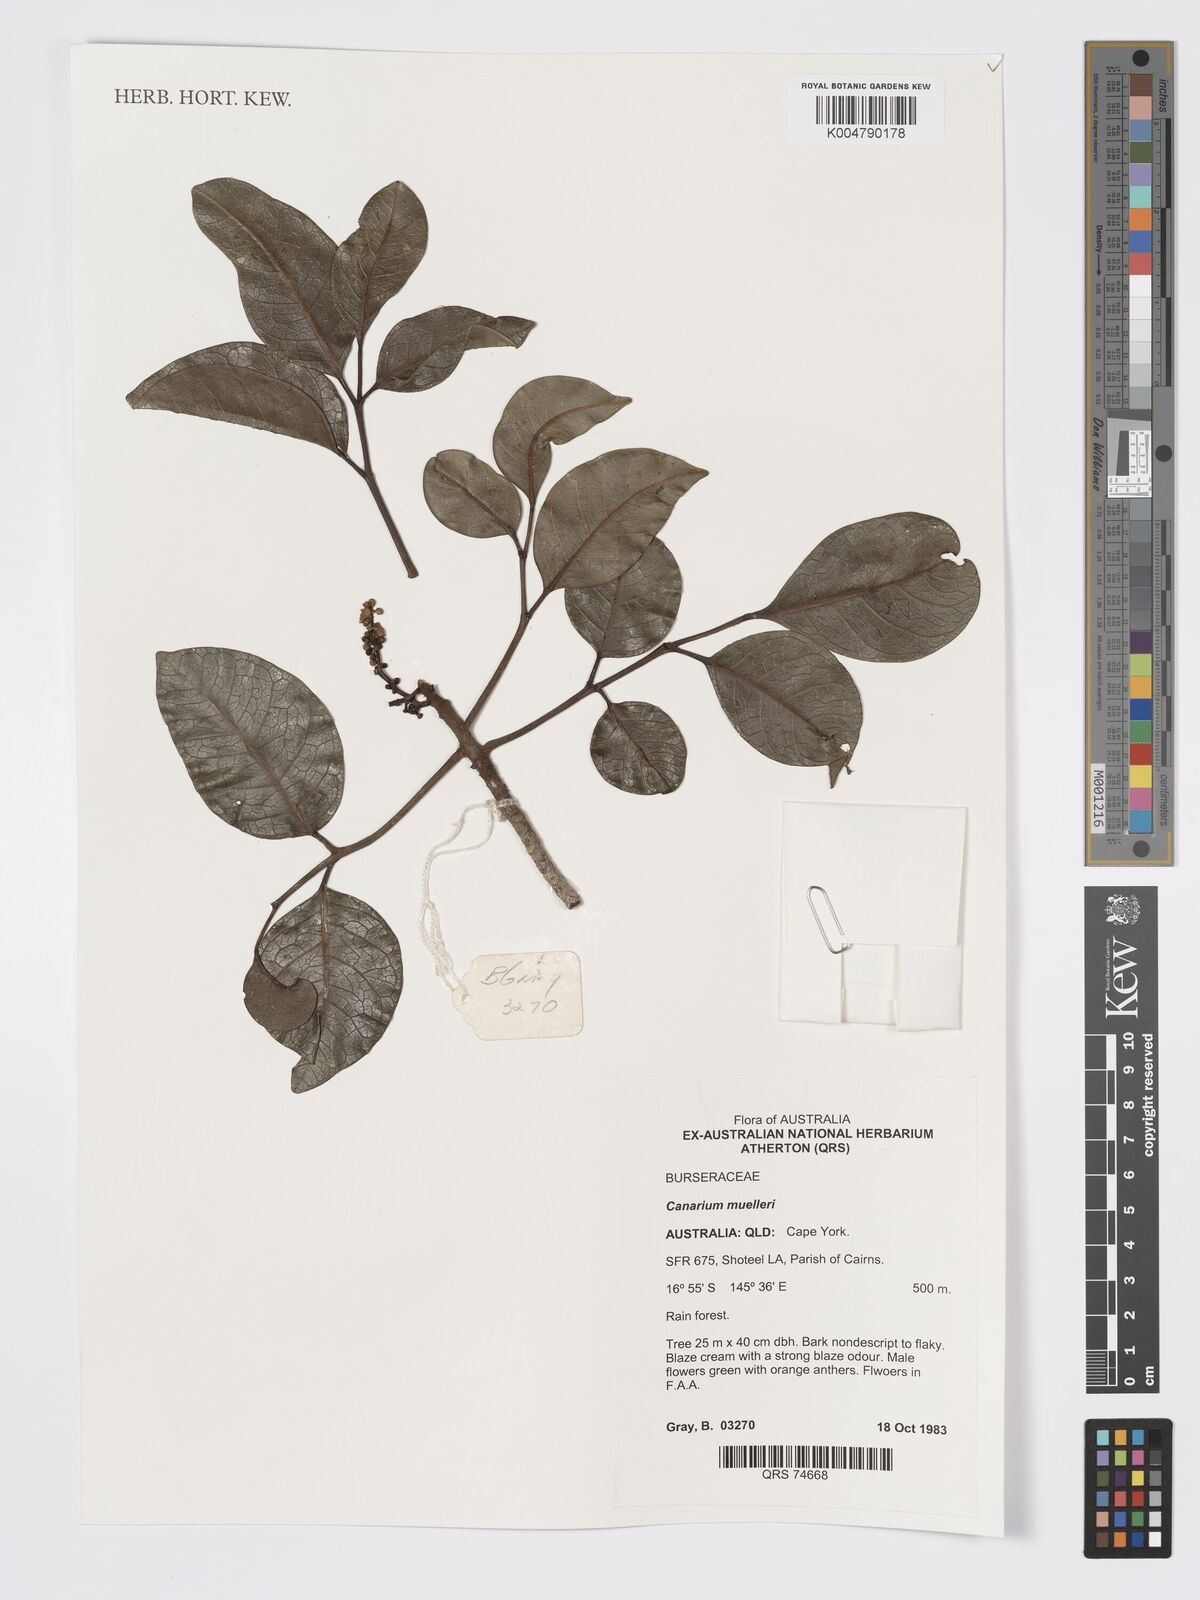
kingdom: Plantae
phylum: Tracheophyta
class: Magnoliopsida
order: Sapindales
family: Burseraceae
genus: Canarium
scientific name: Canarium muelleri
